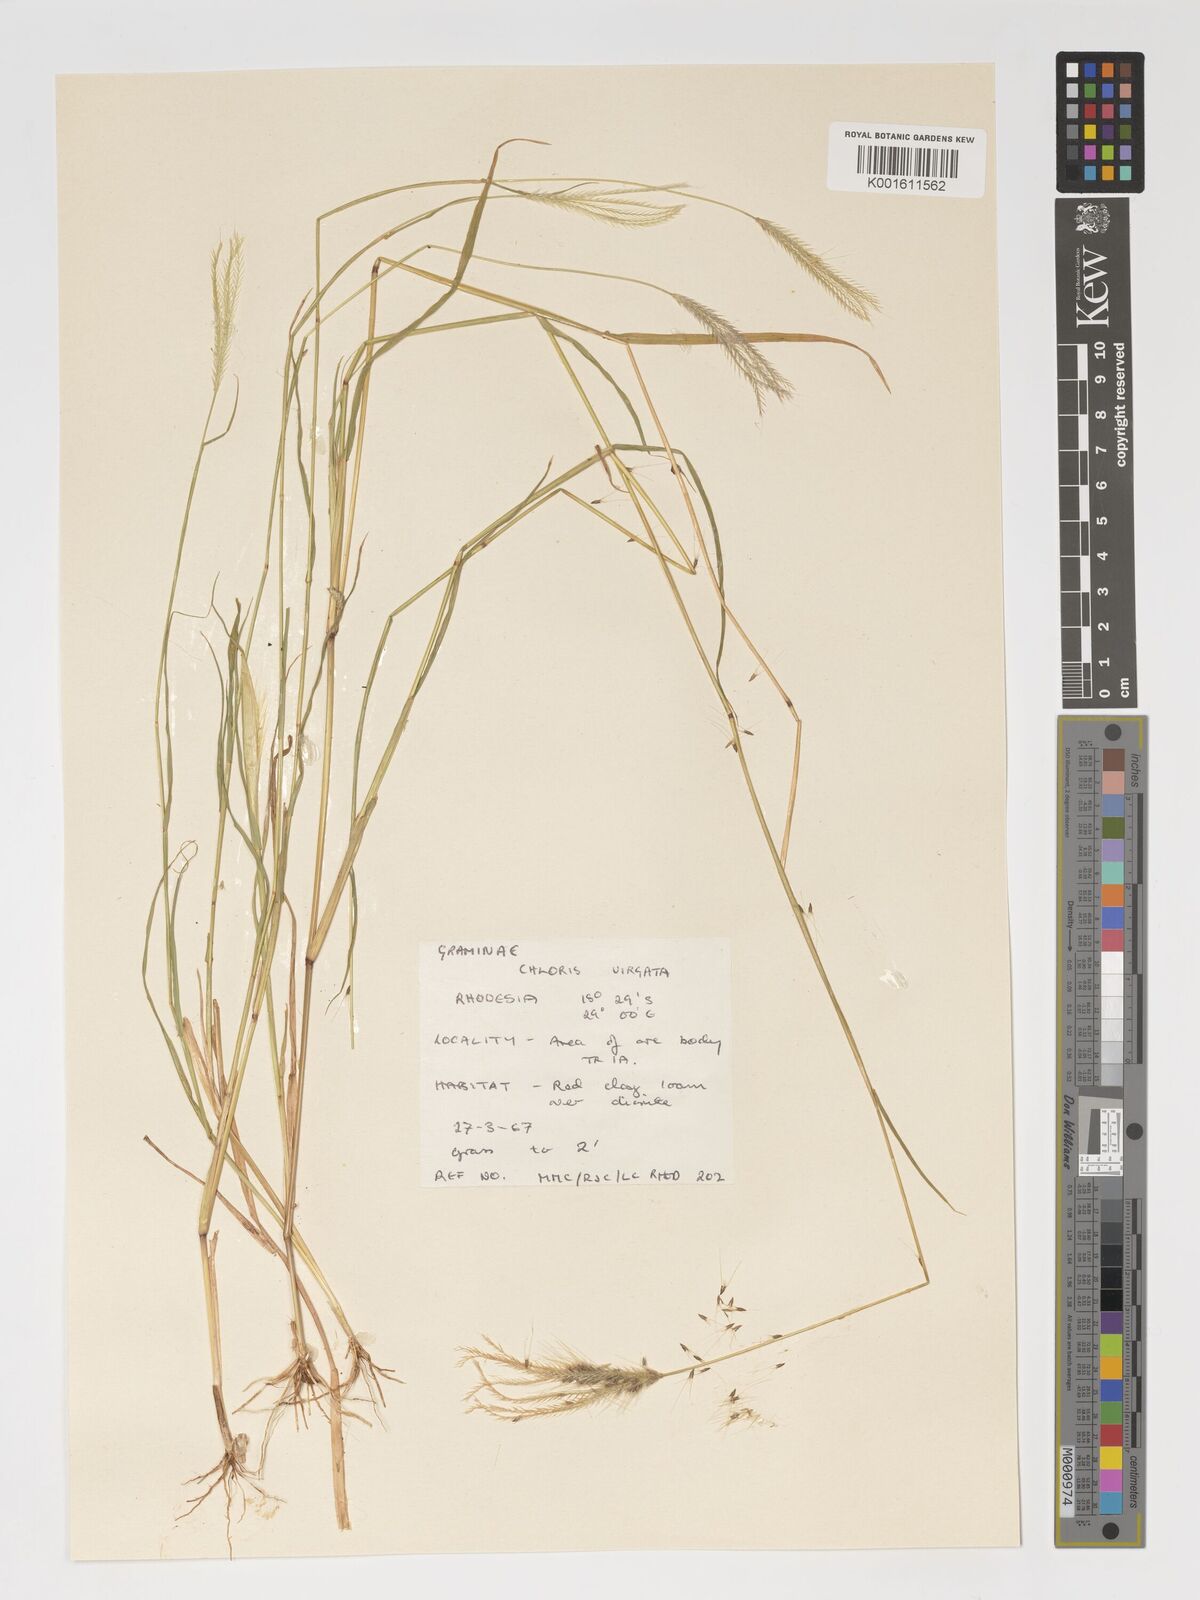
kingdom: Plantae
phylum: Tracheophyta
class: Liliopsida
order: Poales
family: Poaceae
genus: Chloris
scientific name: Chloris virgata
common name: Feathery rhodes-grass
